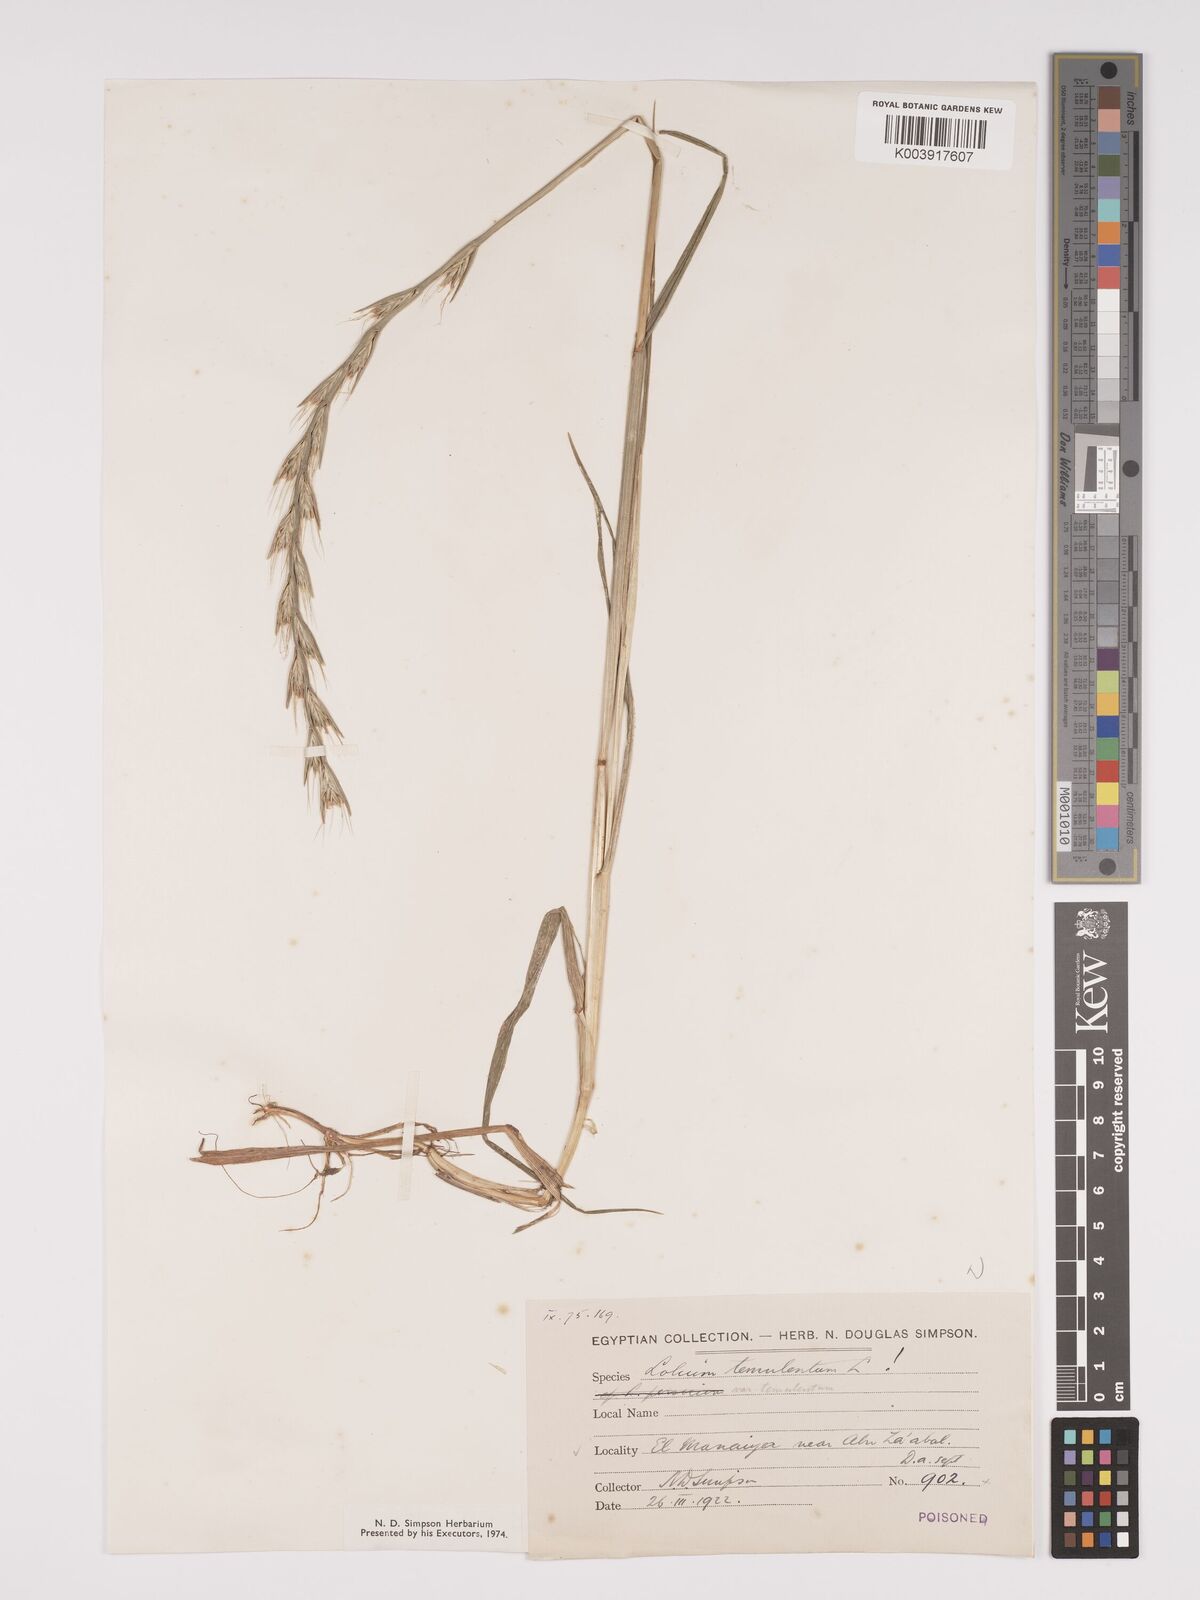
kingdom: Plantae
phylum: Tracheophyta
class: Liliopsida
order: Poales
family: Poaceae
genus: Lolium
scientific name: Lolium temulentum
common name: Darnel
